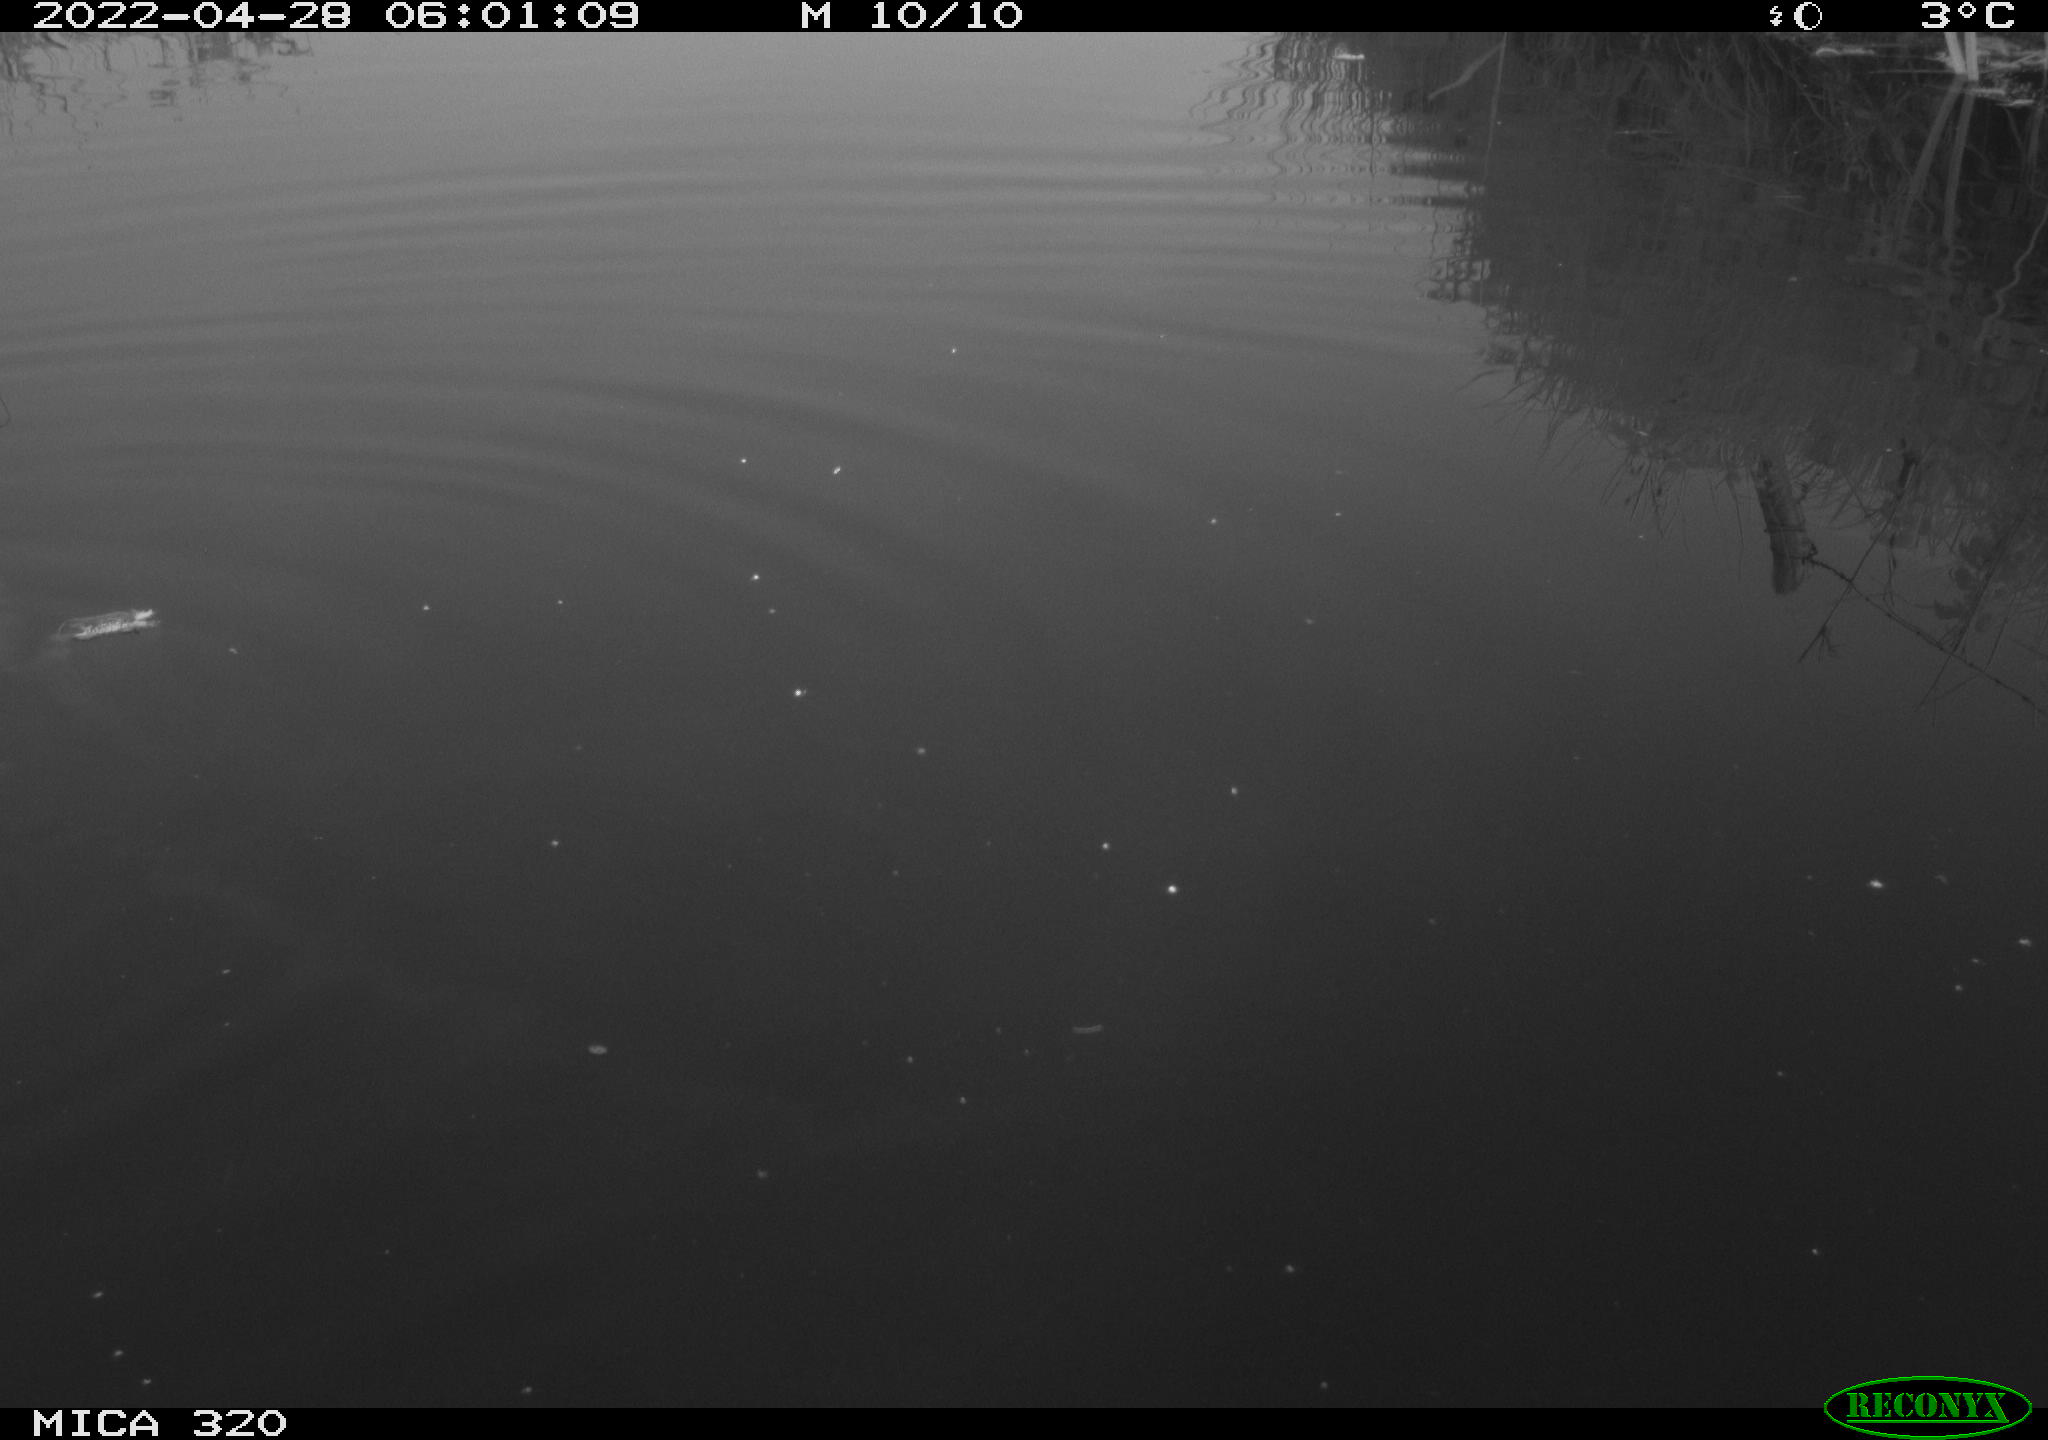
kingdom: Animalia
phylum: Chordata
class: Aves
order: Gruiformes
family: Rallidae
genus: Gallinula
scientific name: Gallinula chloropus
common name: Common moorhen
